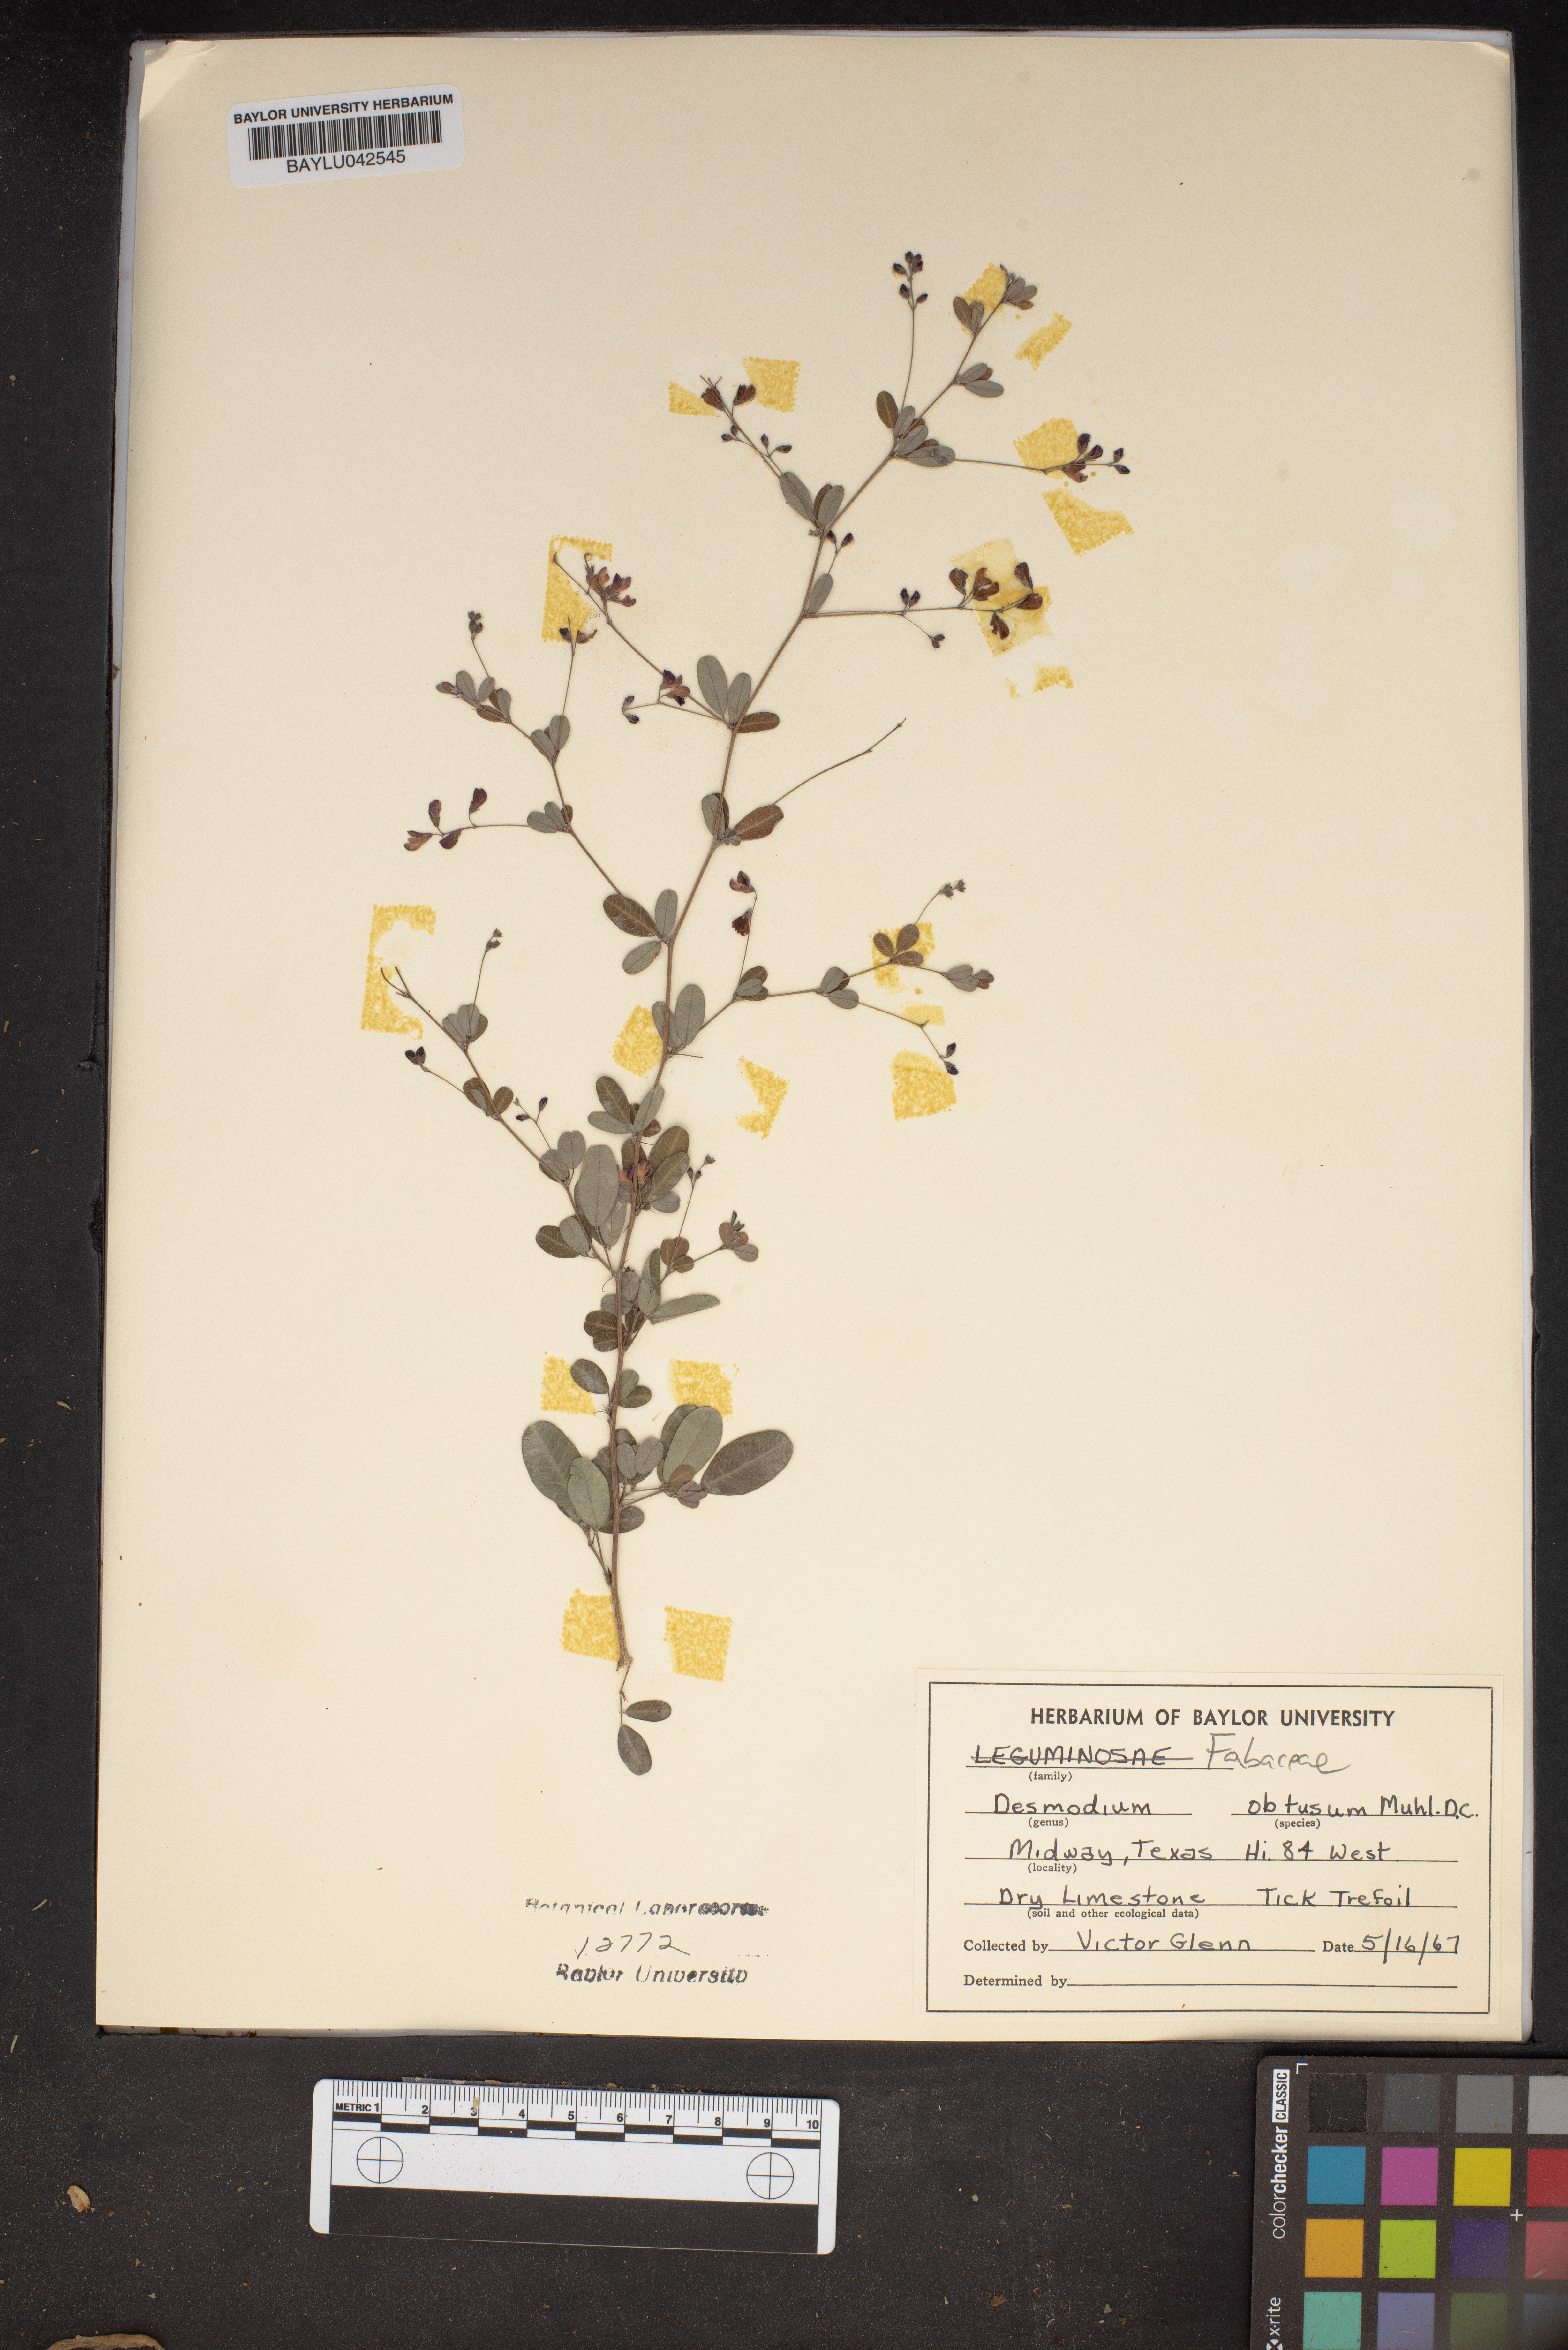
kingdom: Plantae
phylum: Tracheophyta
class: Magnoliopsida
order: Fabales
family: Fabaceae
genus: Desmodium
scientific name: Desmodium obtusum
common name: Stiff tick trefoil
